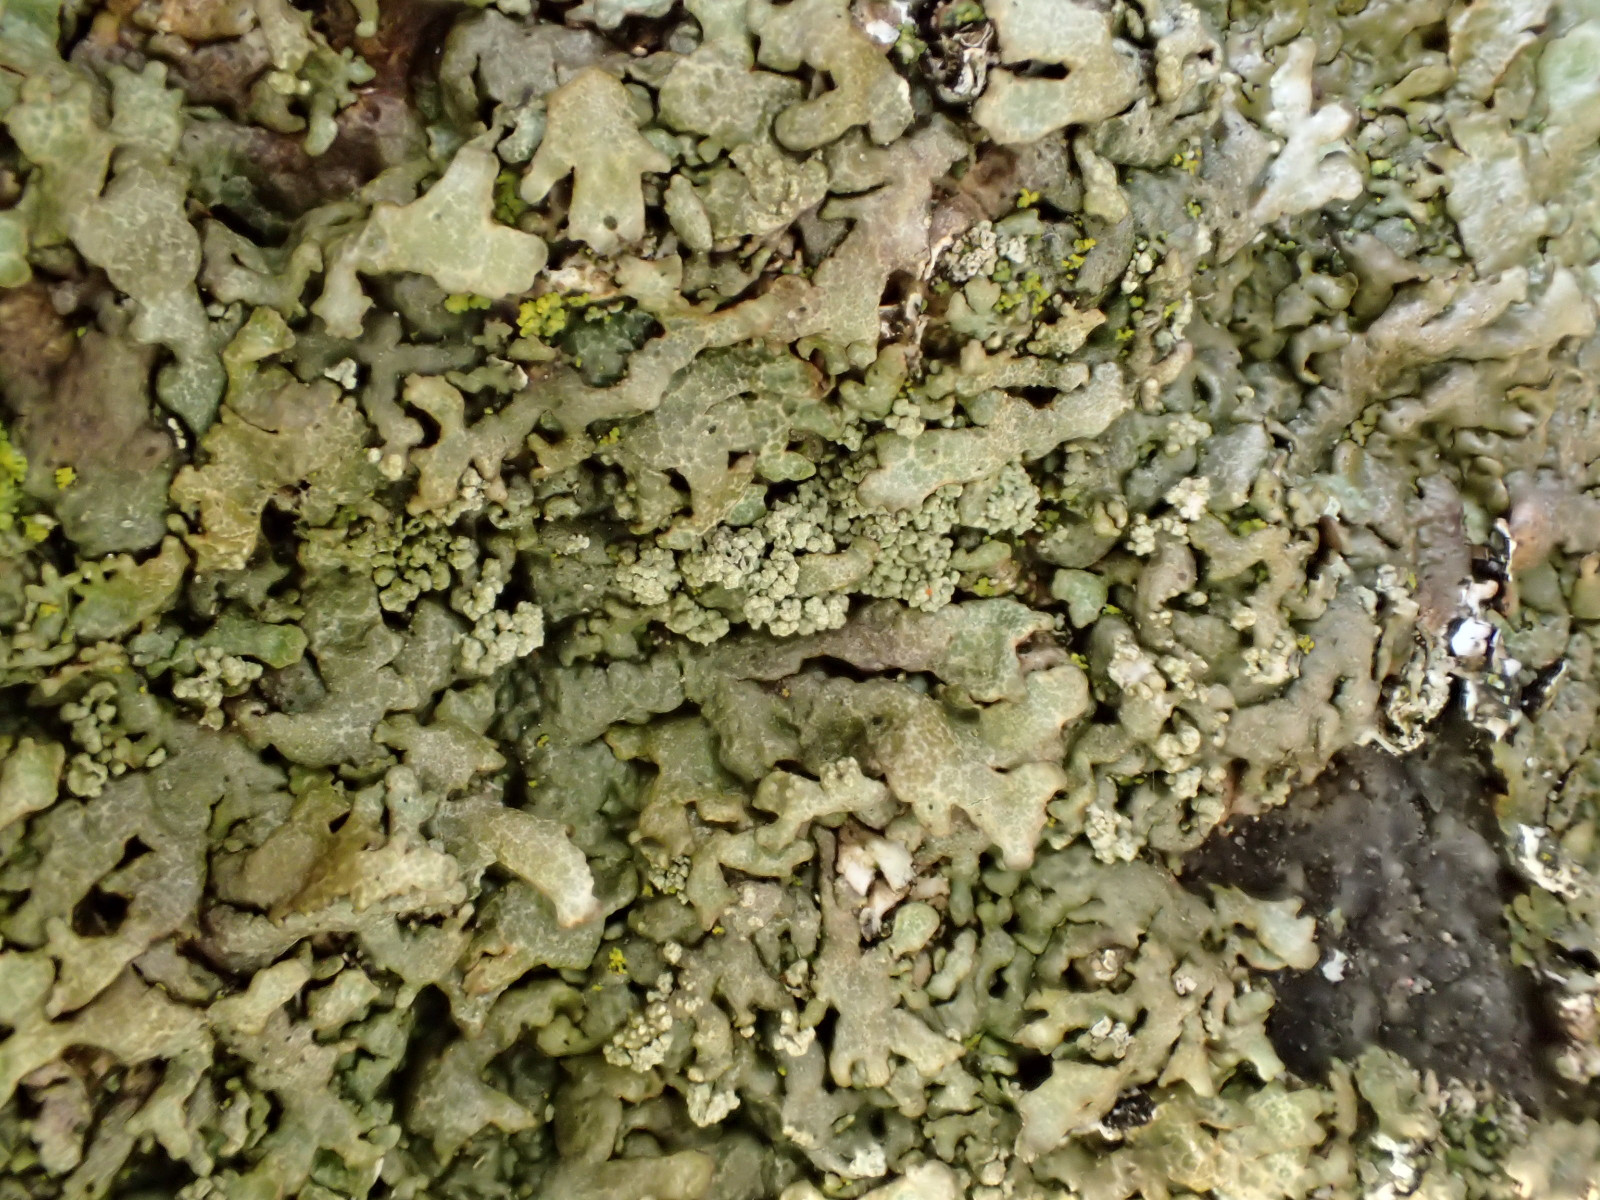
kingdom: Fungi
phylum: Ascomycota
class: Lecanoromycetes
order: Lecanorales
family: Parmeliaceae
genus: Xanthoparmelia
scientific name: Xanthoparmelia verruculifera
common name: småknoppet skållav
